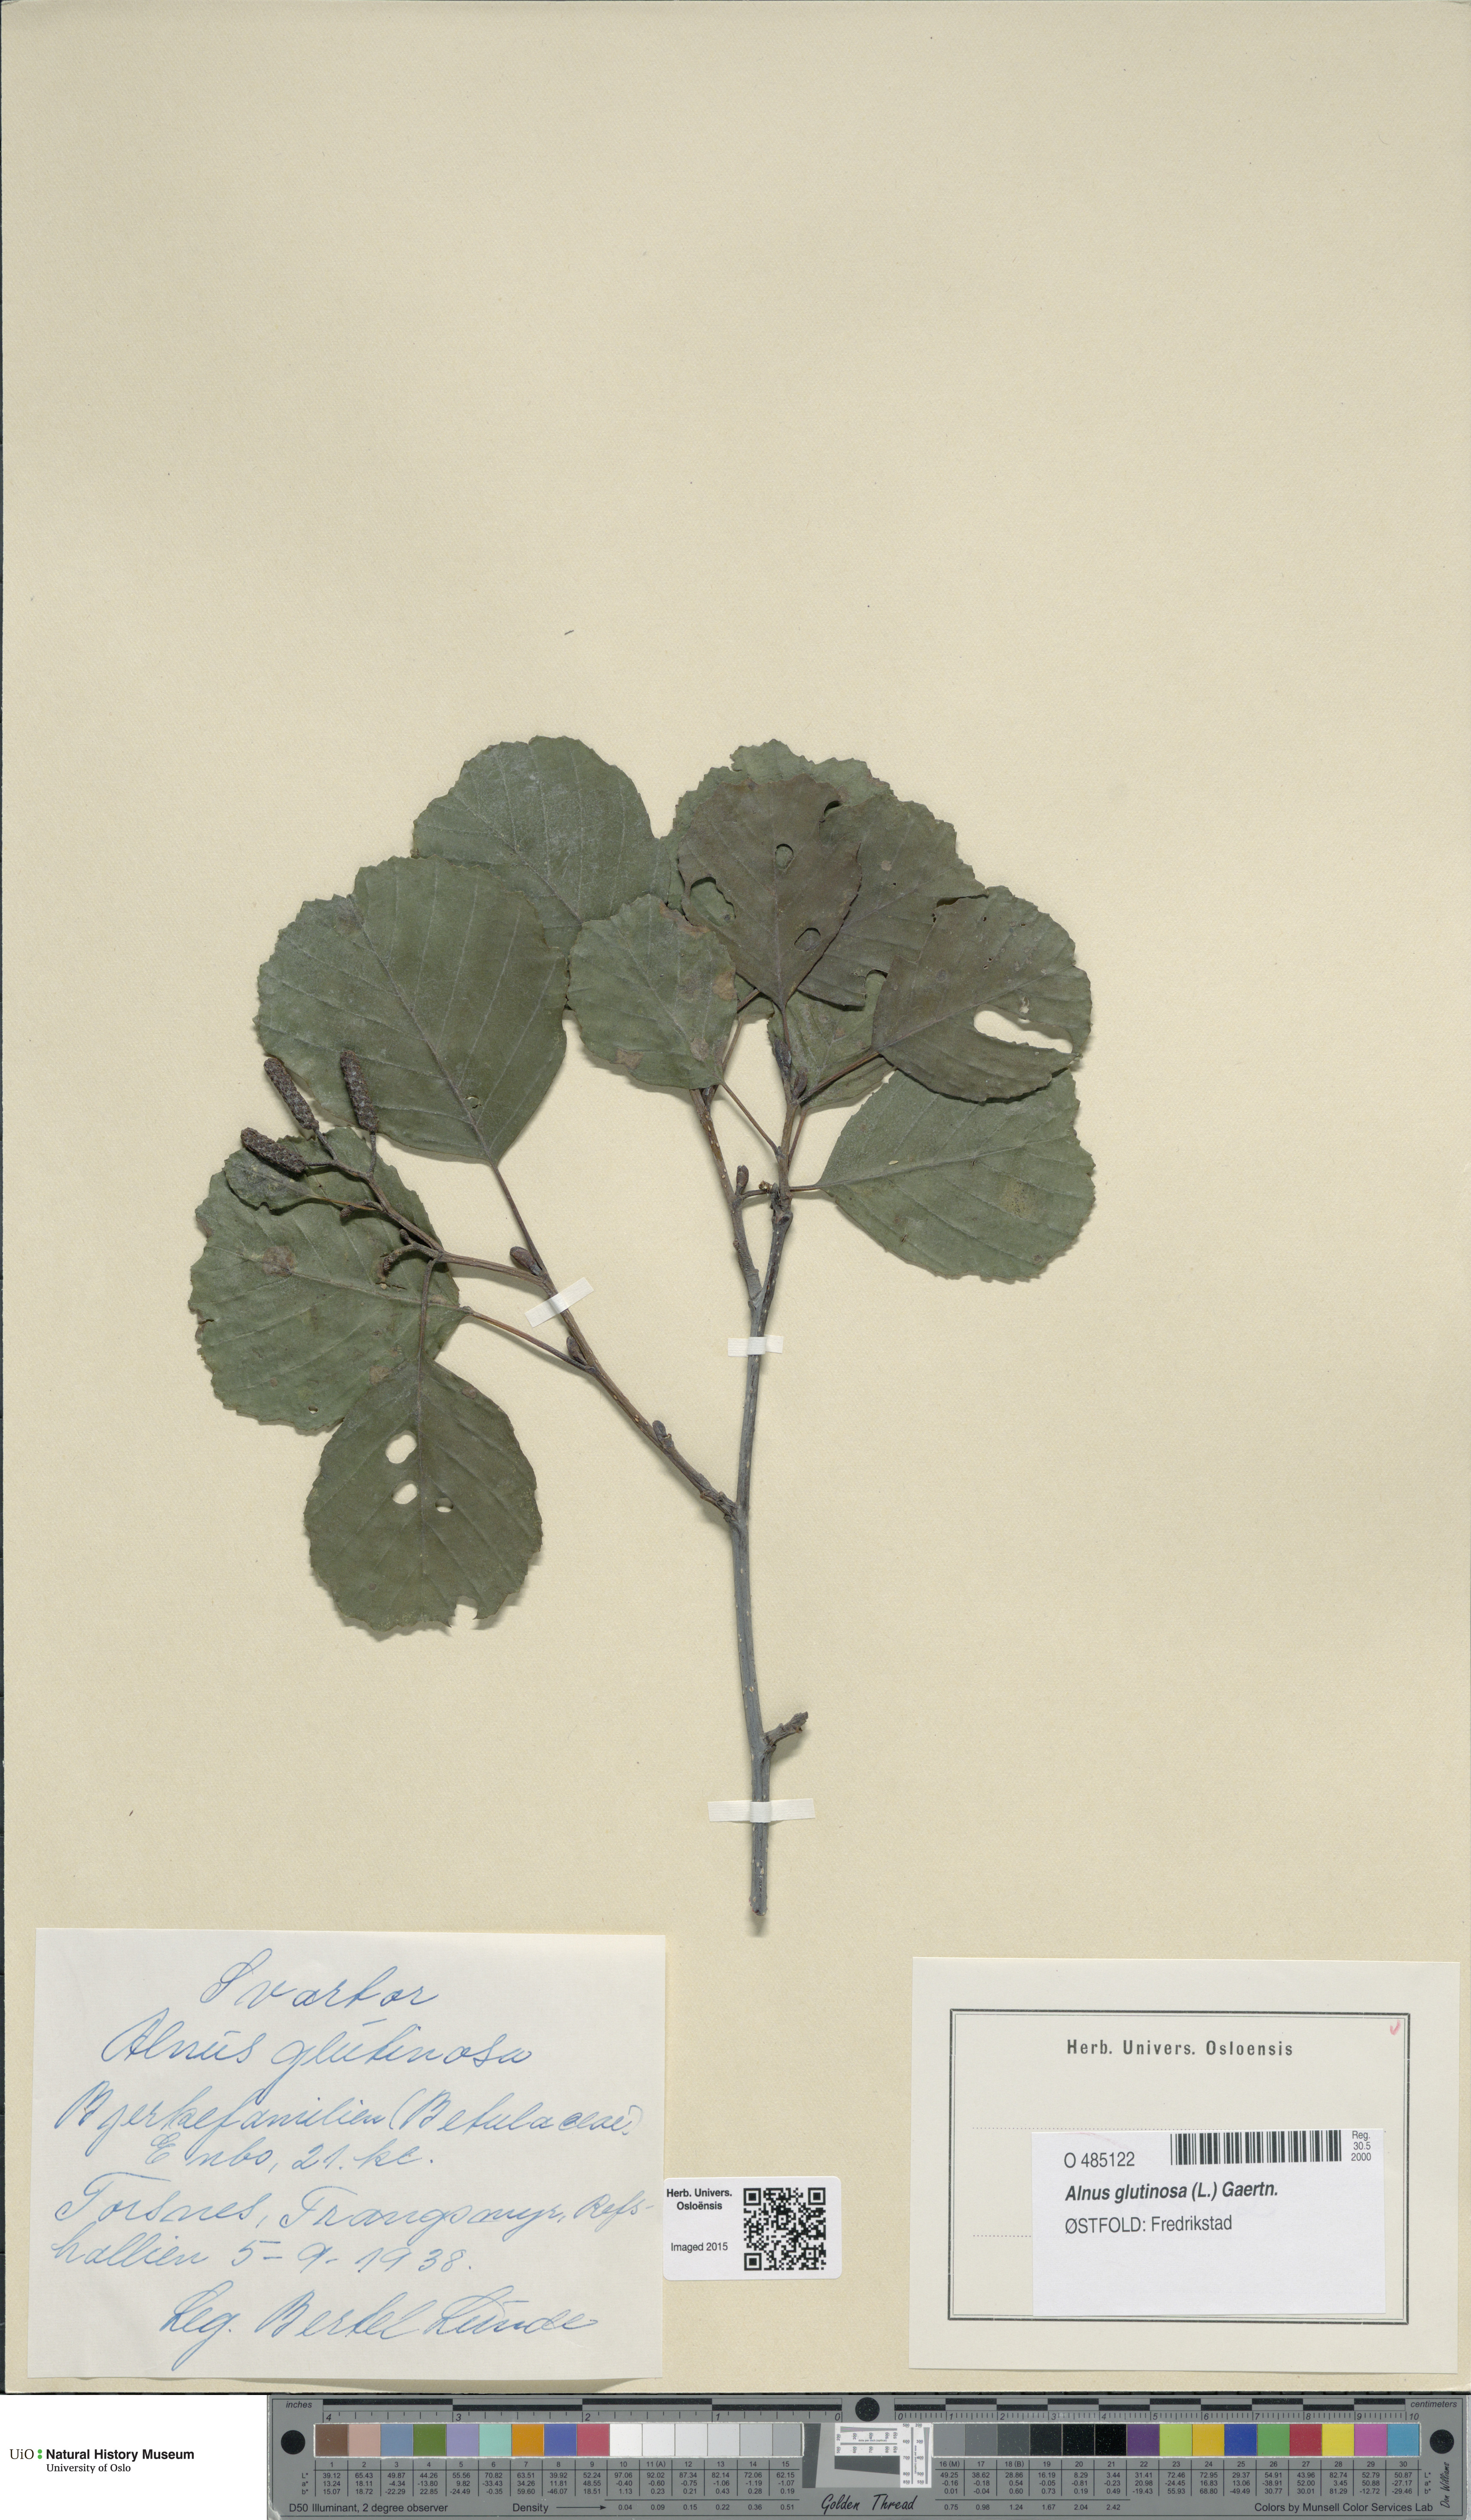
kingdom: Plantae
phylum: Tracheophyta
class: Magnoliopsida
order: Fagales
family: Betulaceae
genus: Alnus
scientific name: Alnus glutinosa
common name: Black alder
